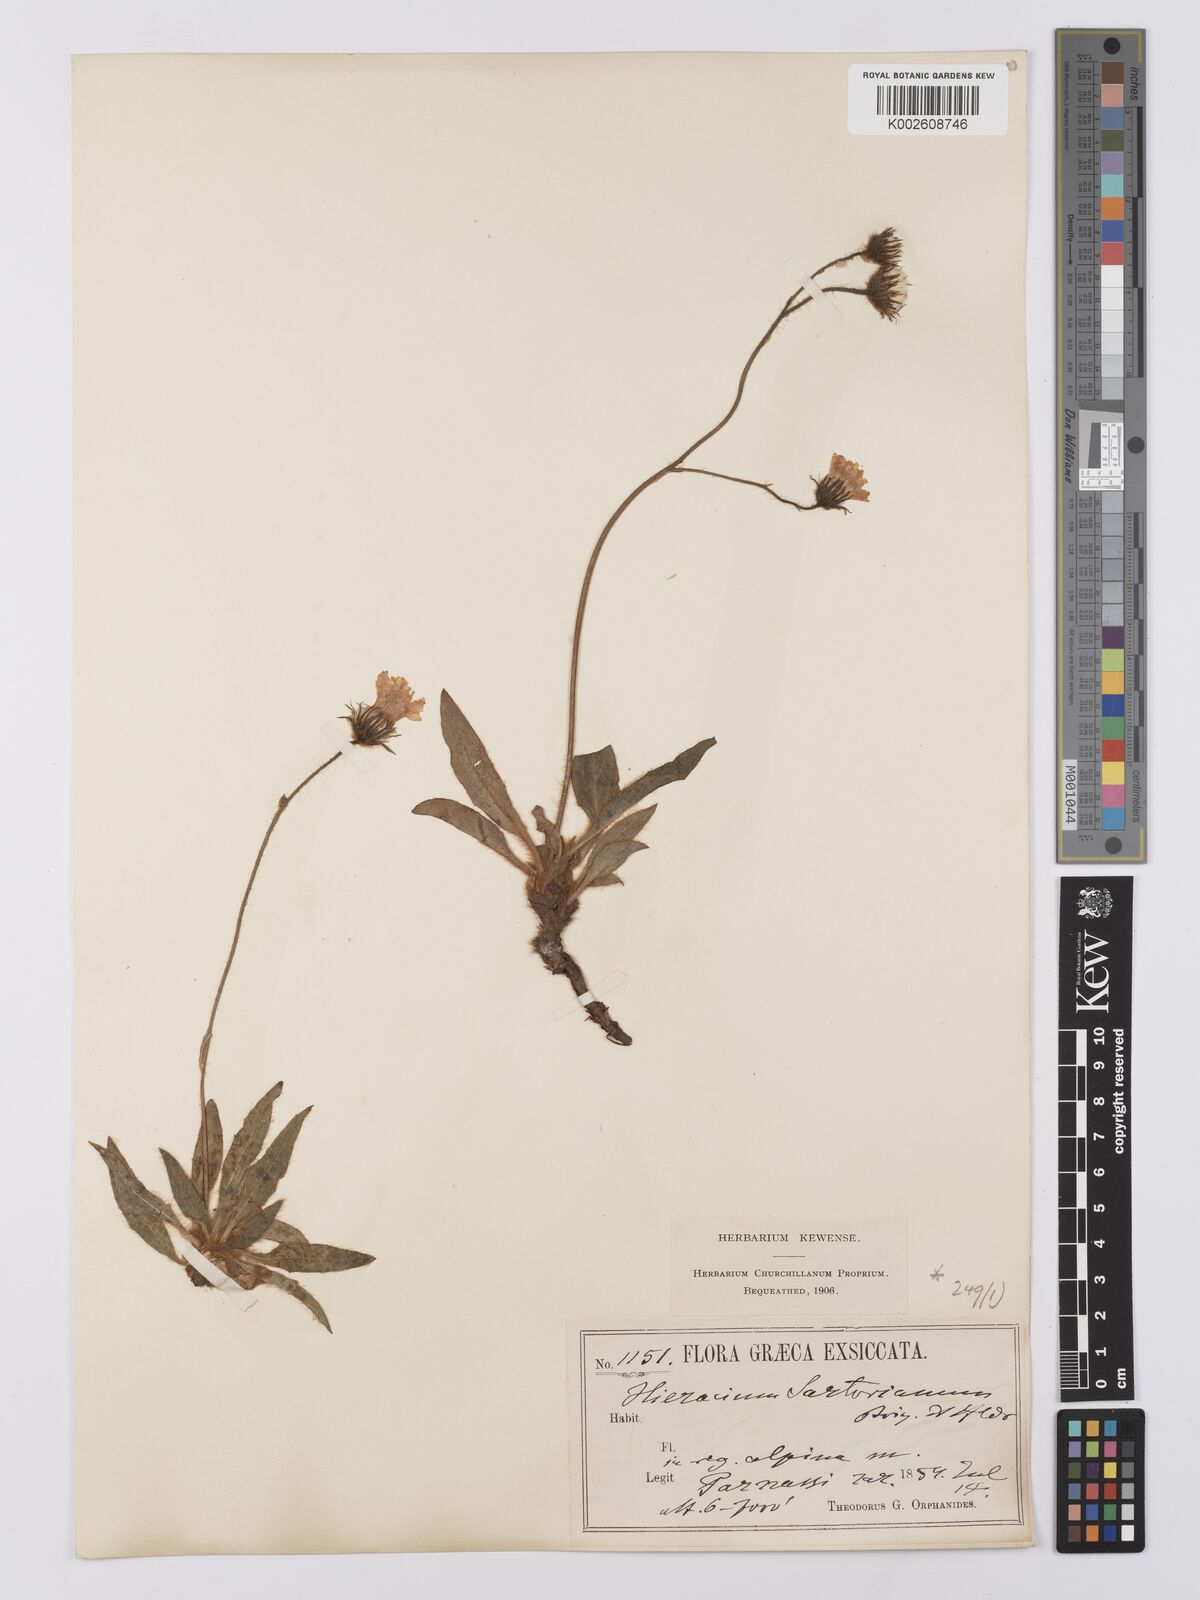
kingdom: Plantae
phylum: Tracheophyta
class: Magnoliopsida
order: Asterales
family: Asteraceae
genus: Hieracium
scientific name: Hieracium sartorianum
